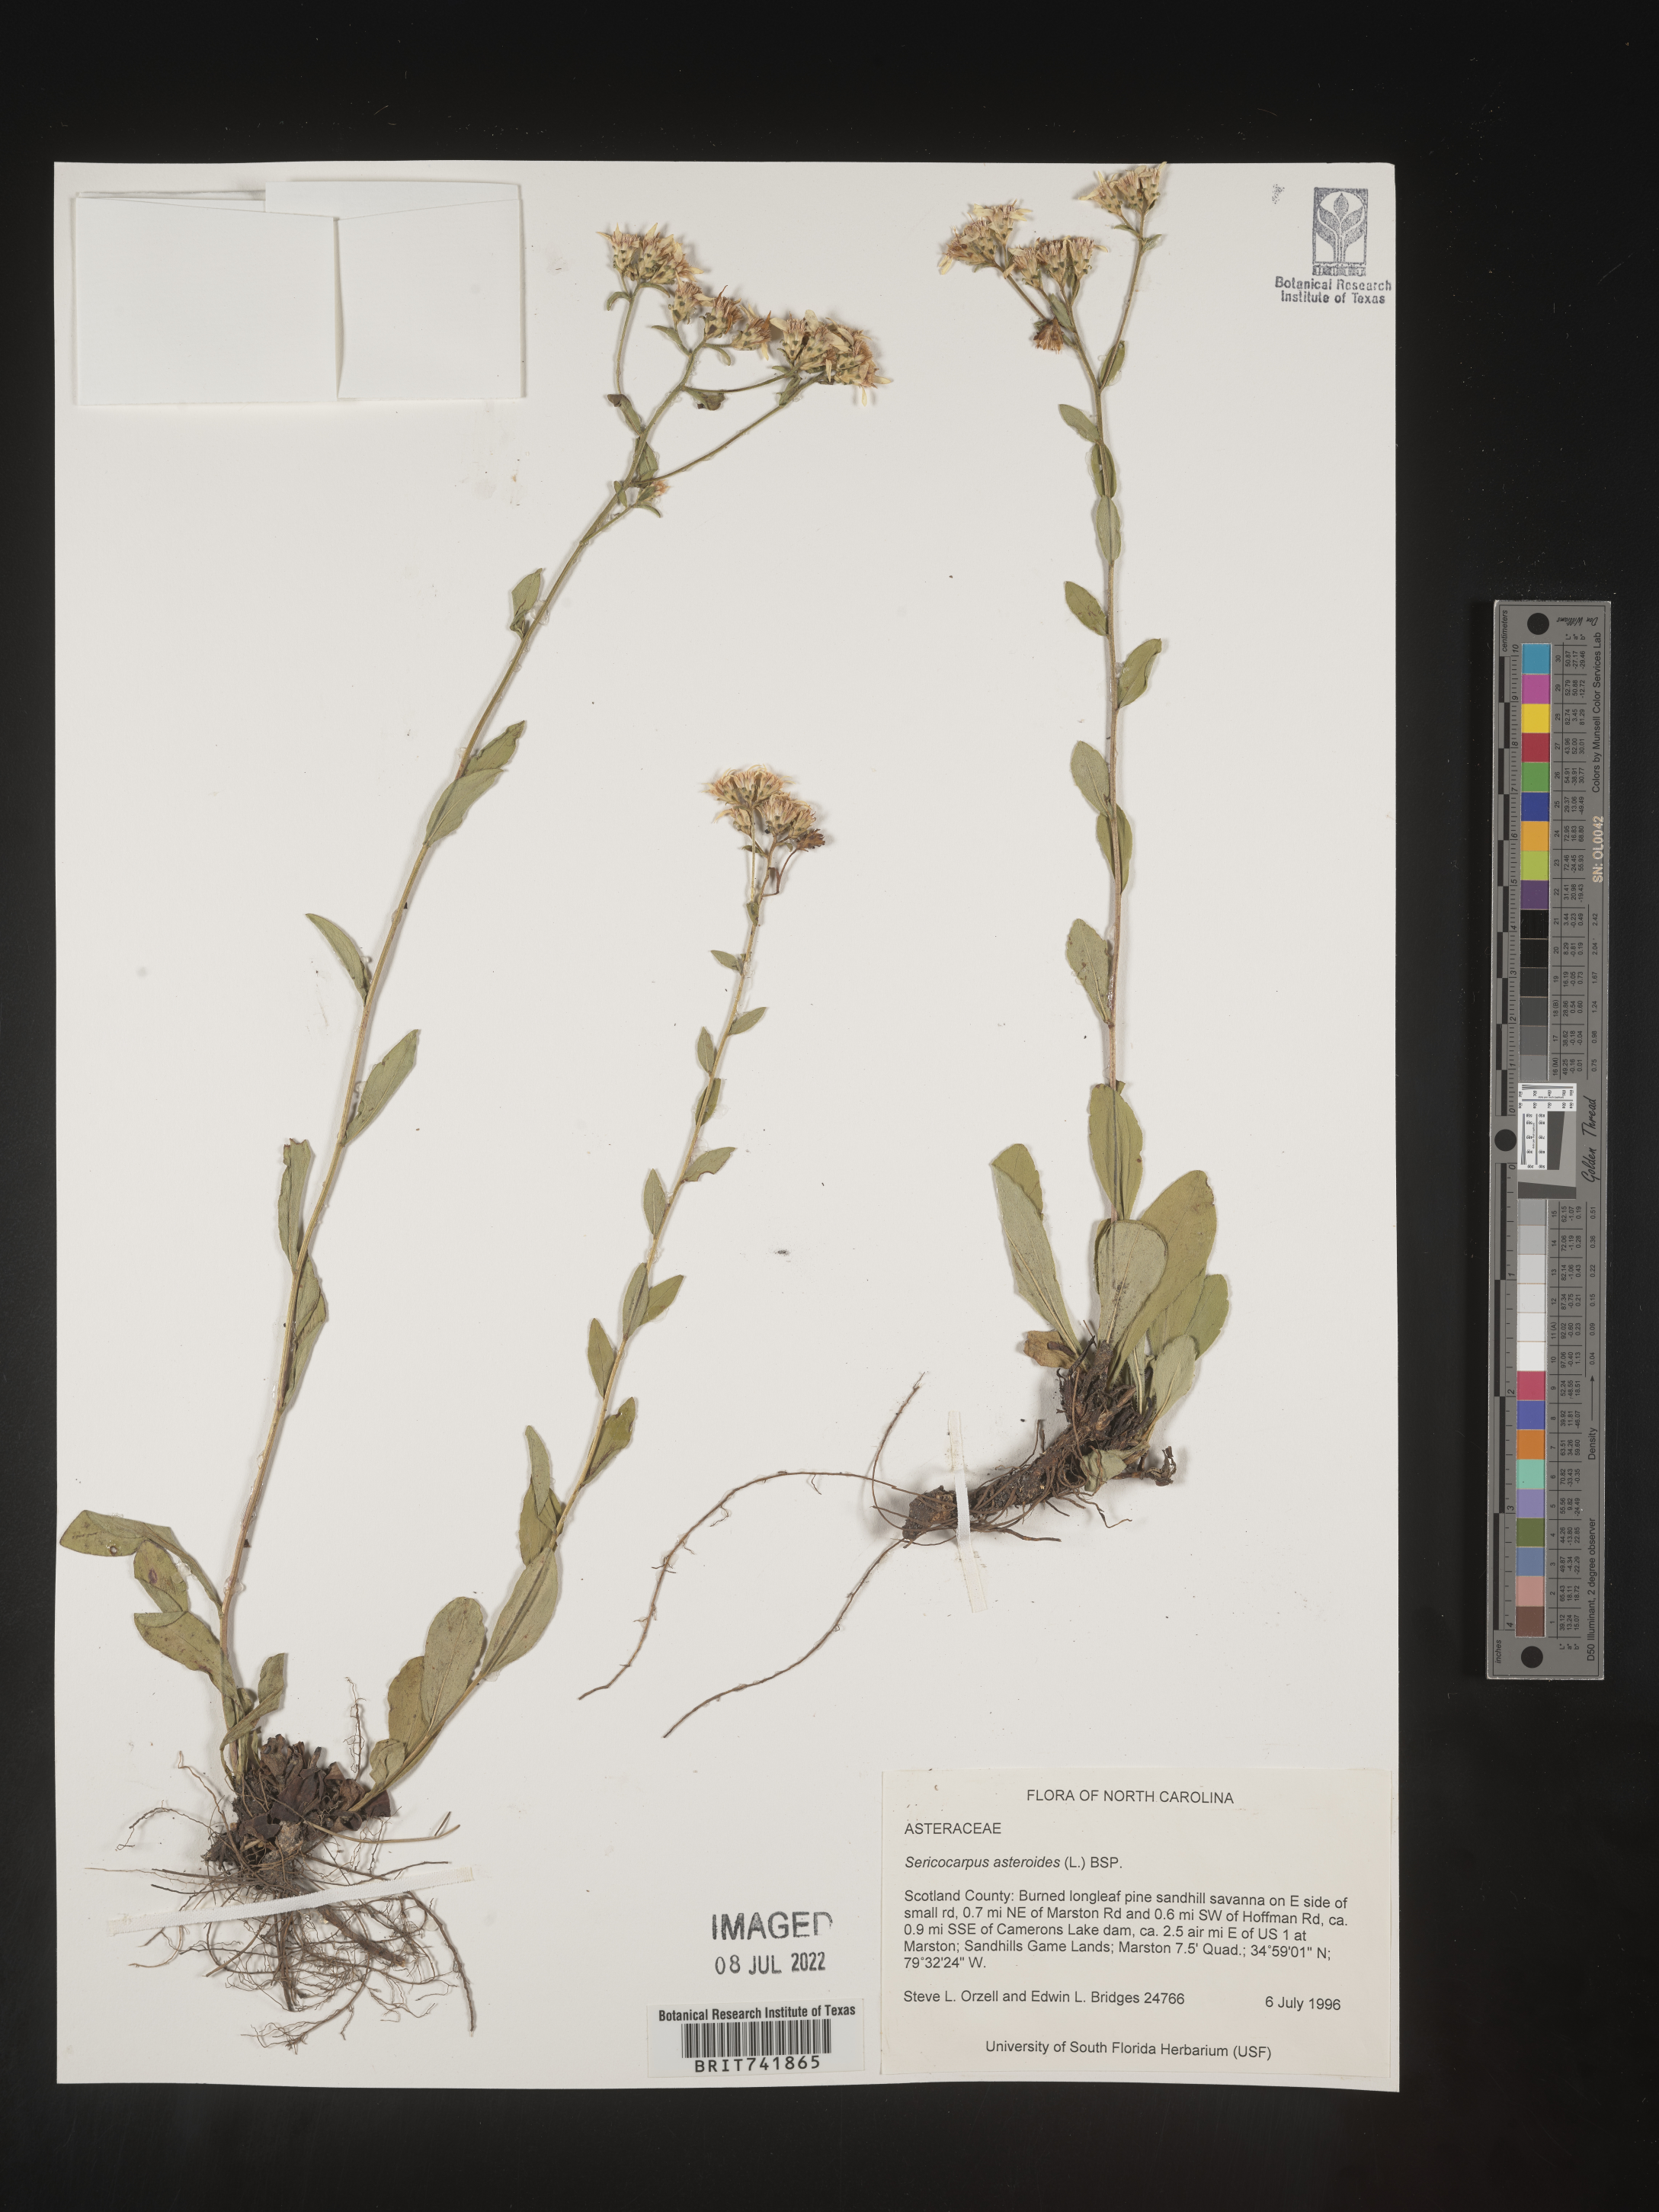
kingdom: Plantae
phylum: Tracheophyta
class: Magnoliopsida
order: Asterales
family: Asteraceae
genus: Sericocarpus
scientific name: Sericocarpus asteroides
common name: Toothed white-top aster
